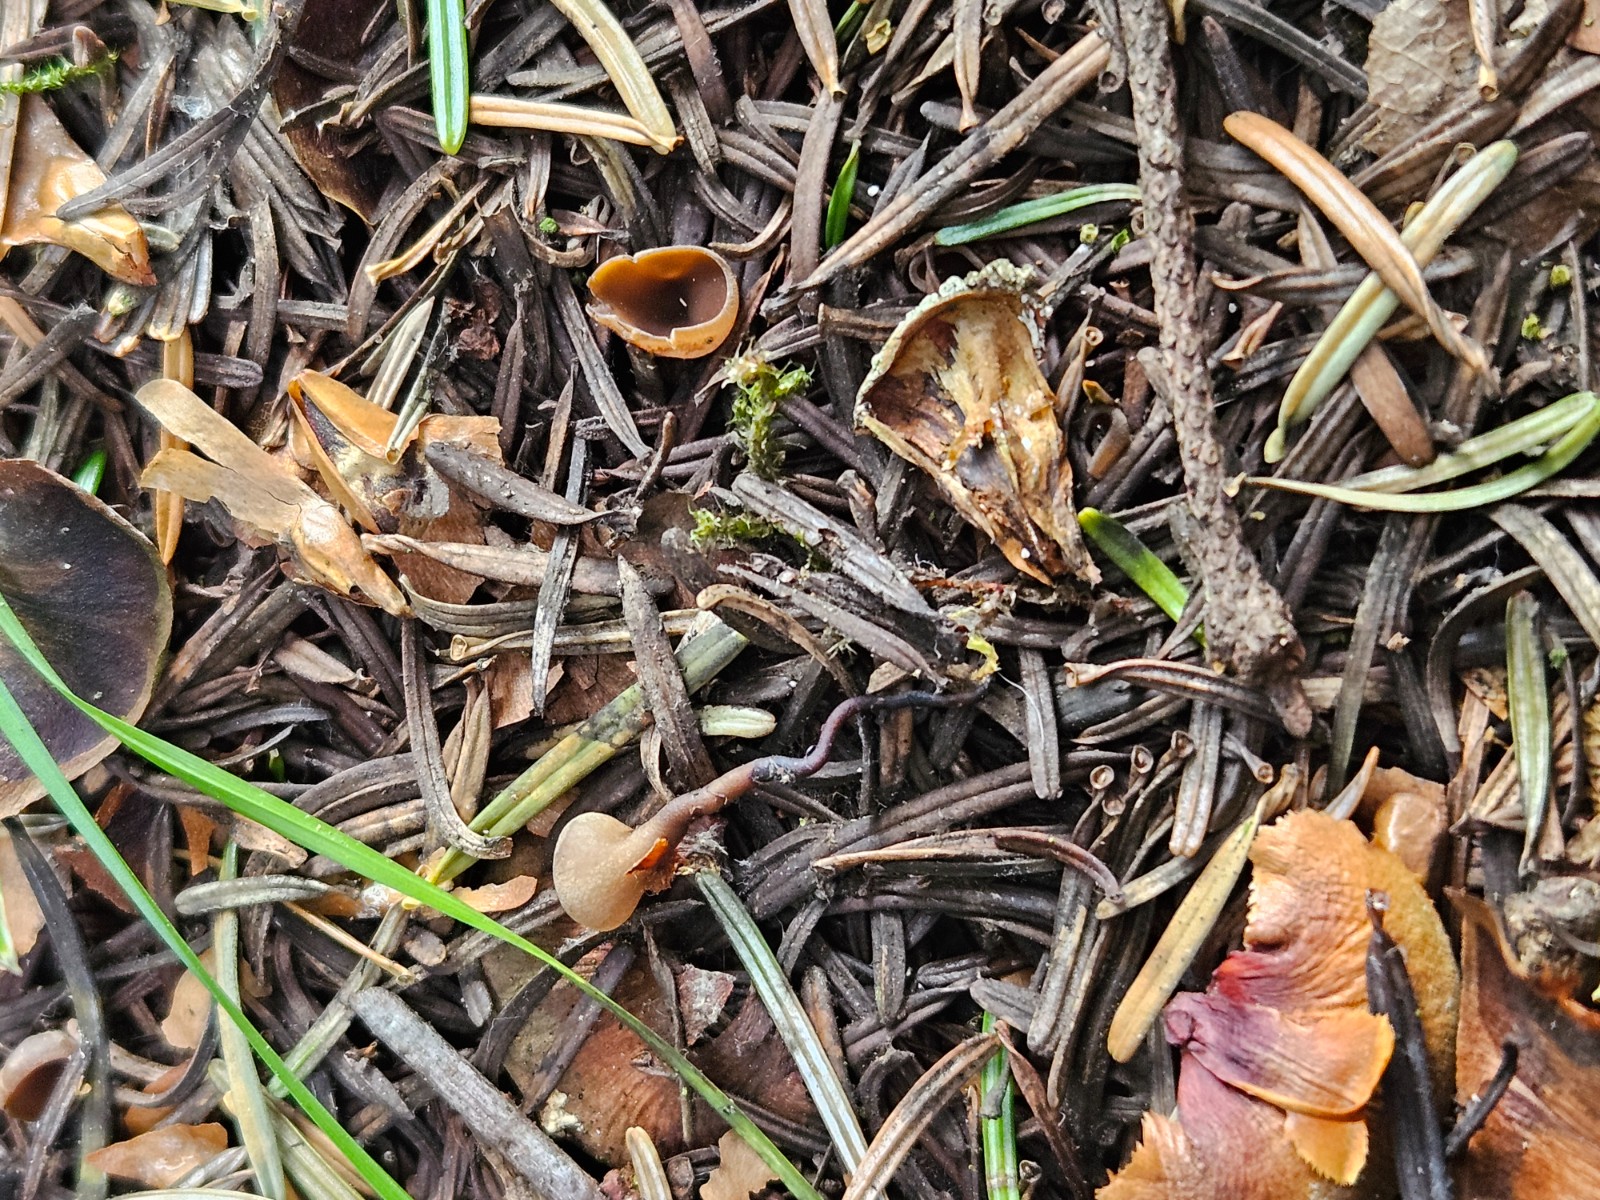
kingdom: Fungi
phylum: Ascomycota
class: Leotiomycetes
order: Helotiales
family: Sclerotiniaceae
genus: Ciboria
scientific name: Ciboria rufofusca
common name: kogleskæl-knoldskive
